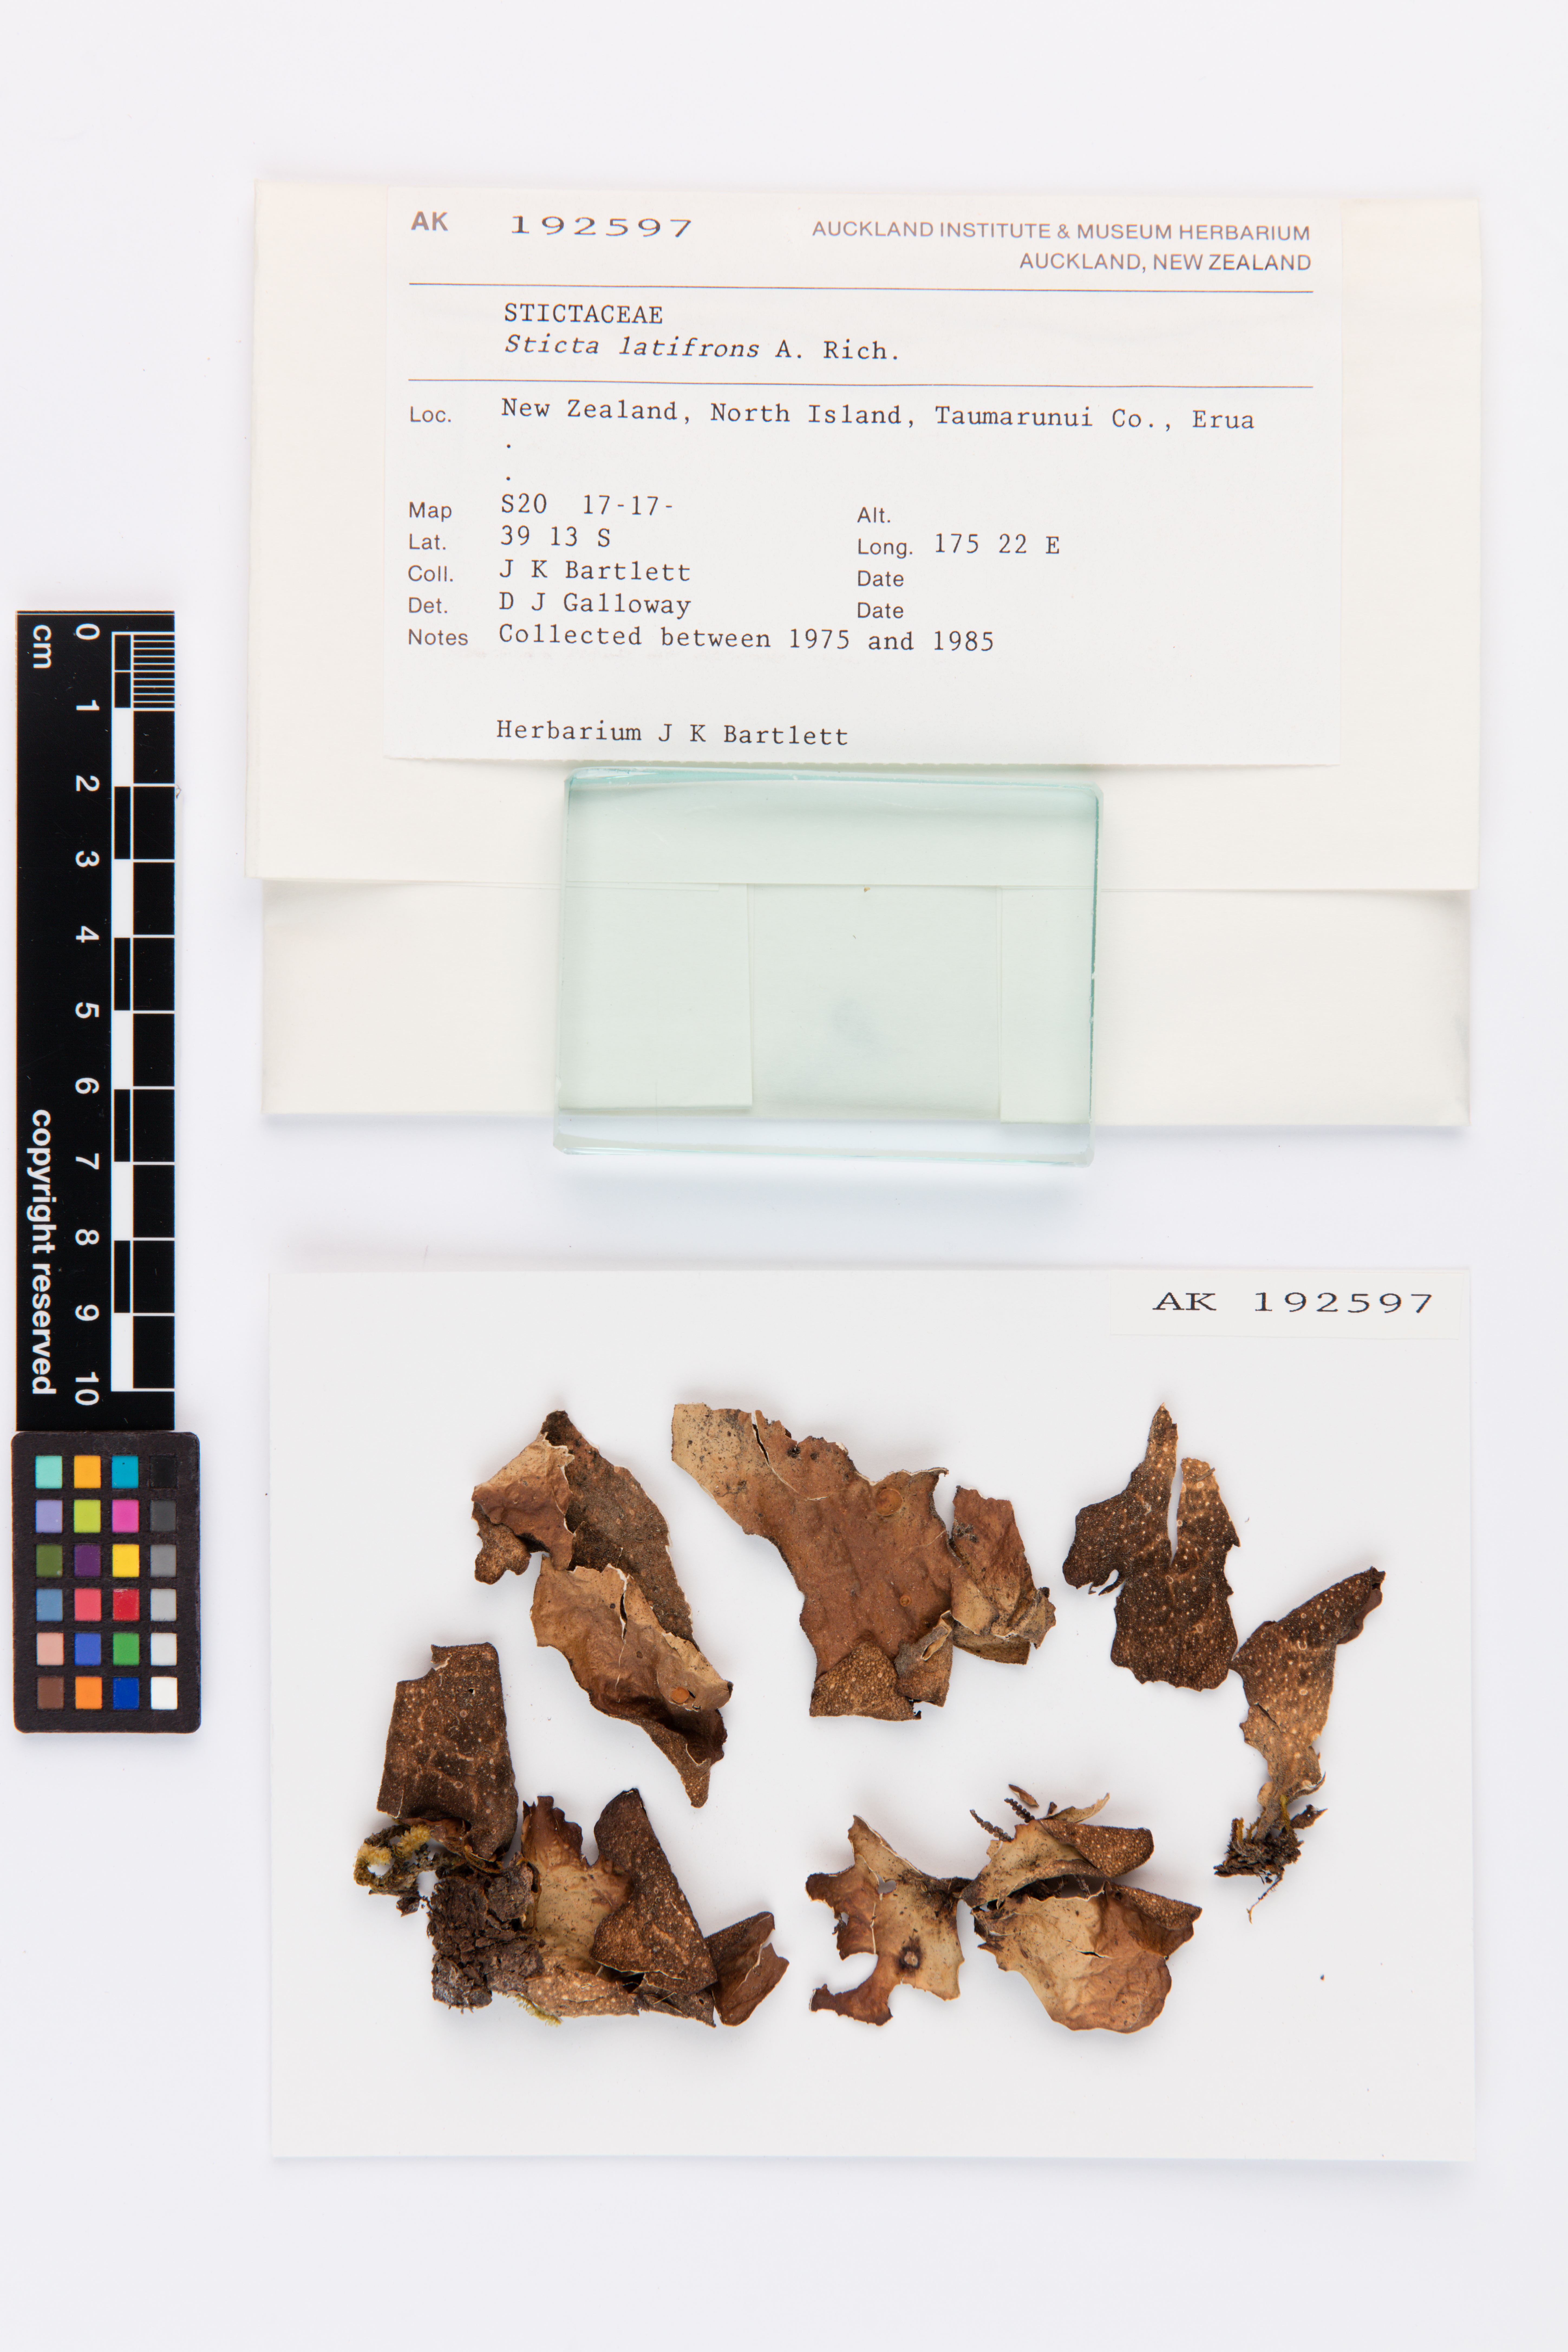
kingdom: Fungi
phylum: Ascomycota
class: Lecanoromycetes
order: Peltigerales
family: Lobariaceae
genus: Sticta
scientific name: Sticta latifrons
